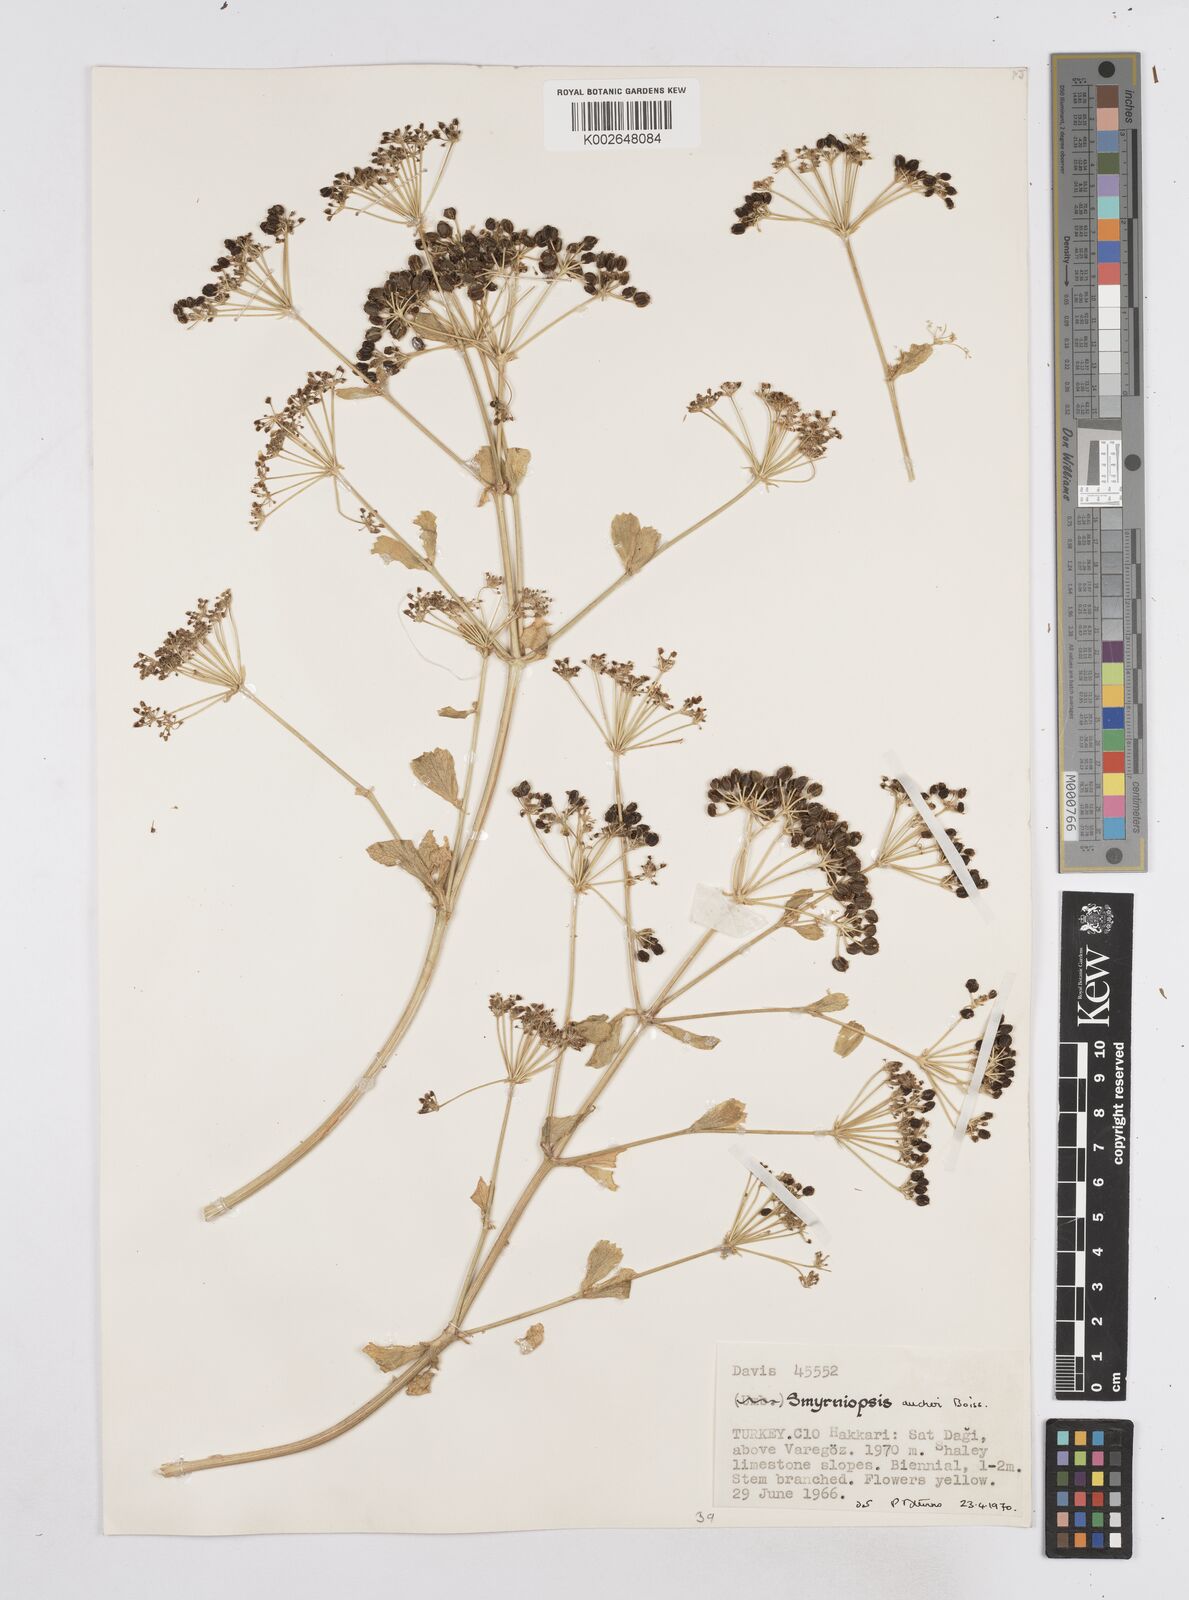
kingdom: Plantae
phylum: Tracheophyta
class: Magnoliopsida
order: Apiales
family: Apiaceae
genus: Smyrniopsis
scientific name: Smyrniopsis aucheri
